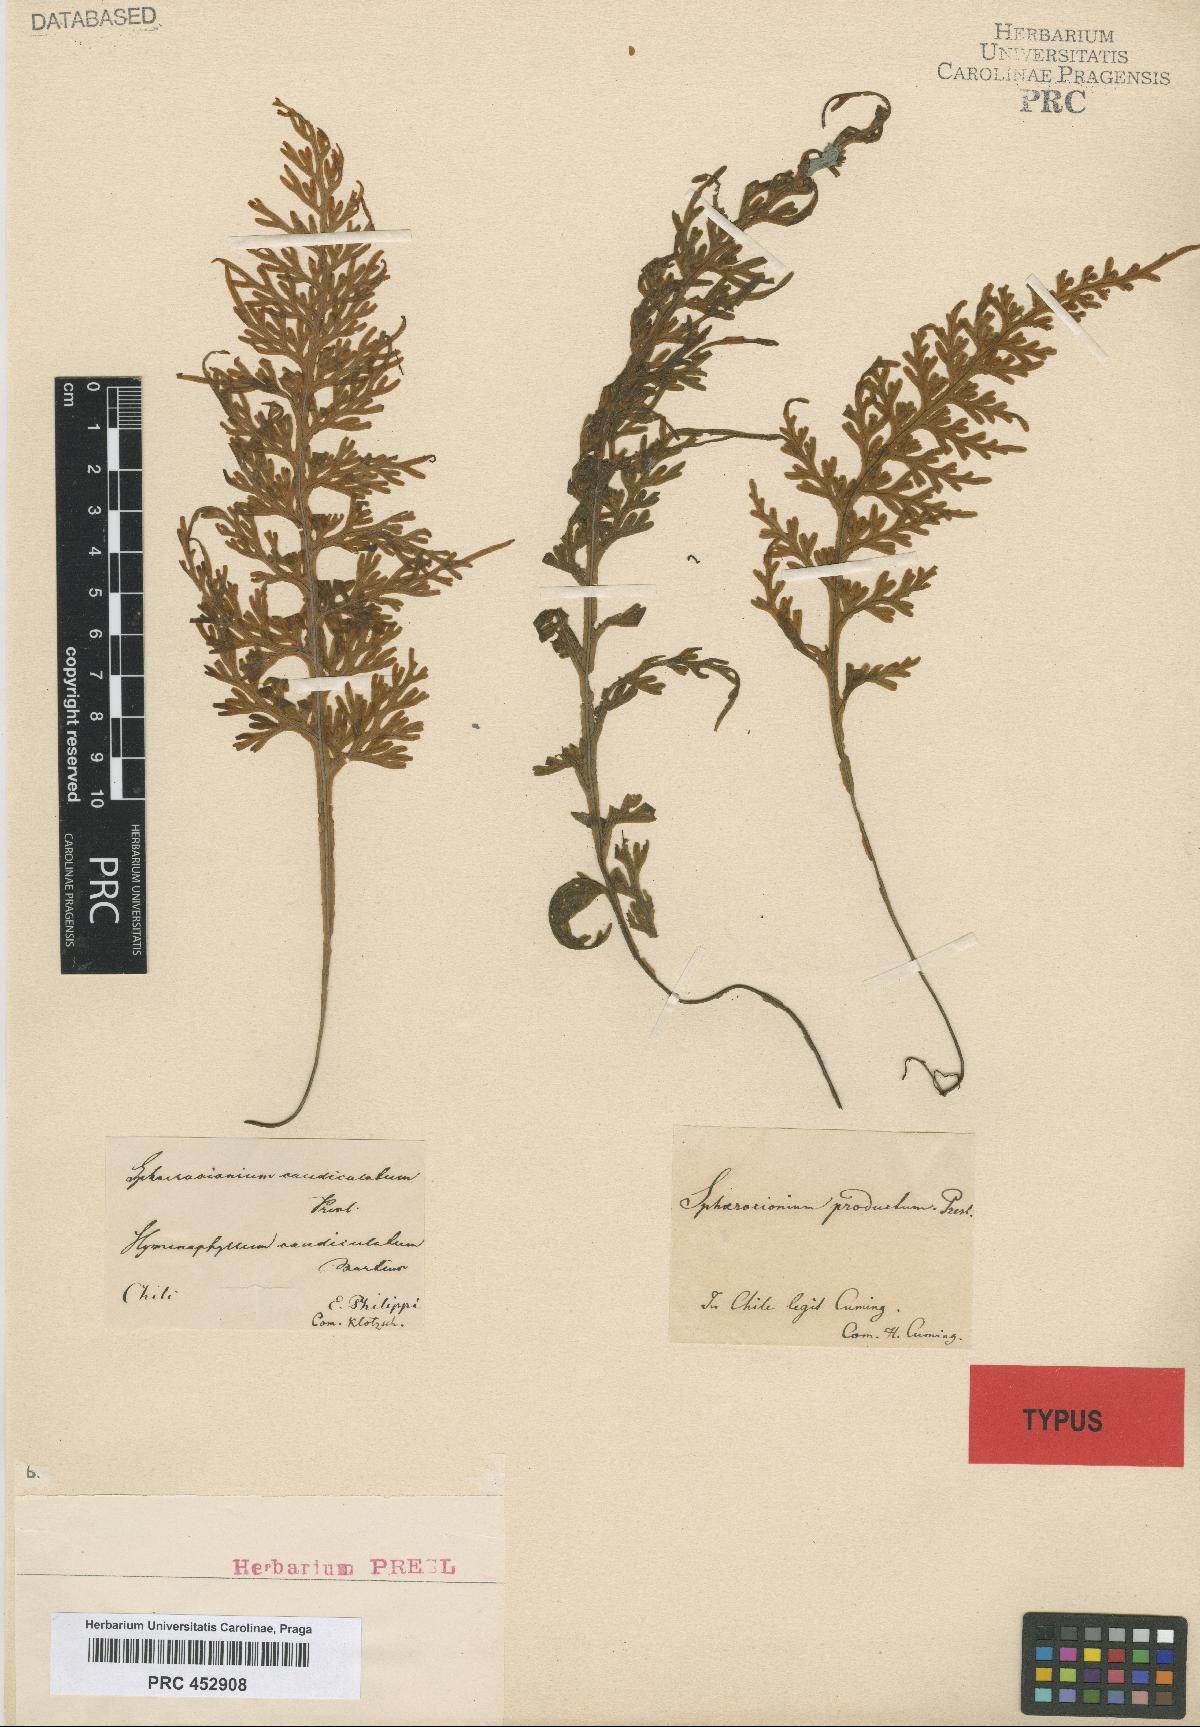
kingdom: Plantae
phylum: Tracheophyta
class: Polypodiopsida
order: Hymenophyllales
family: Hymenophyllaceae
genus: Hymenophyllum
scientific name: Hymenophyllum caudiculatum
